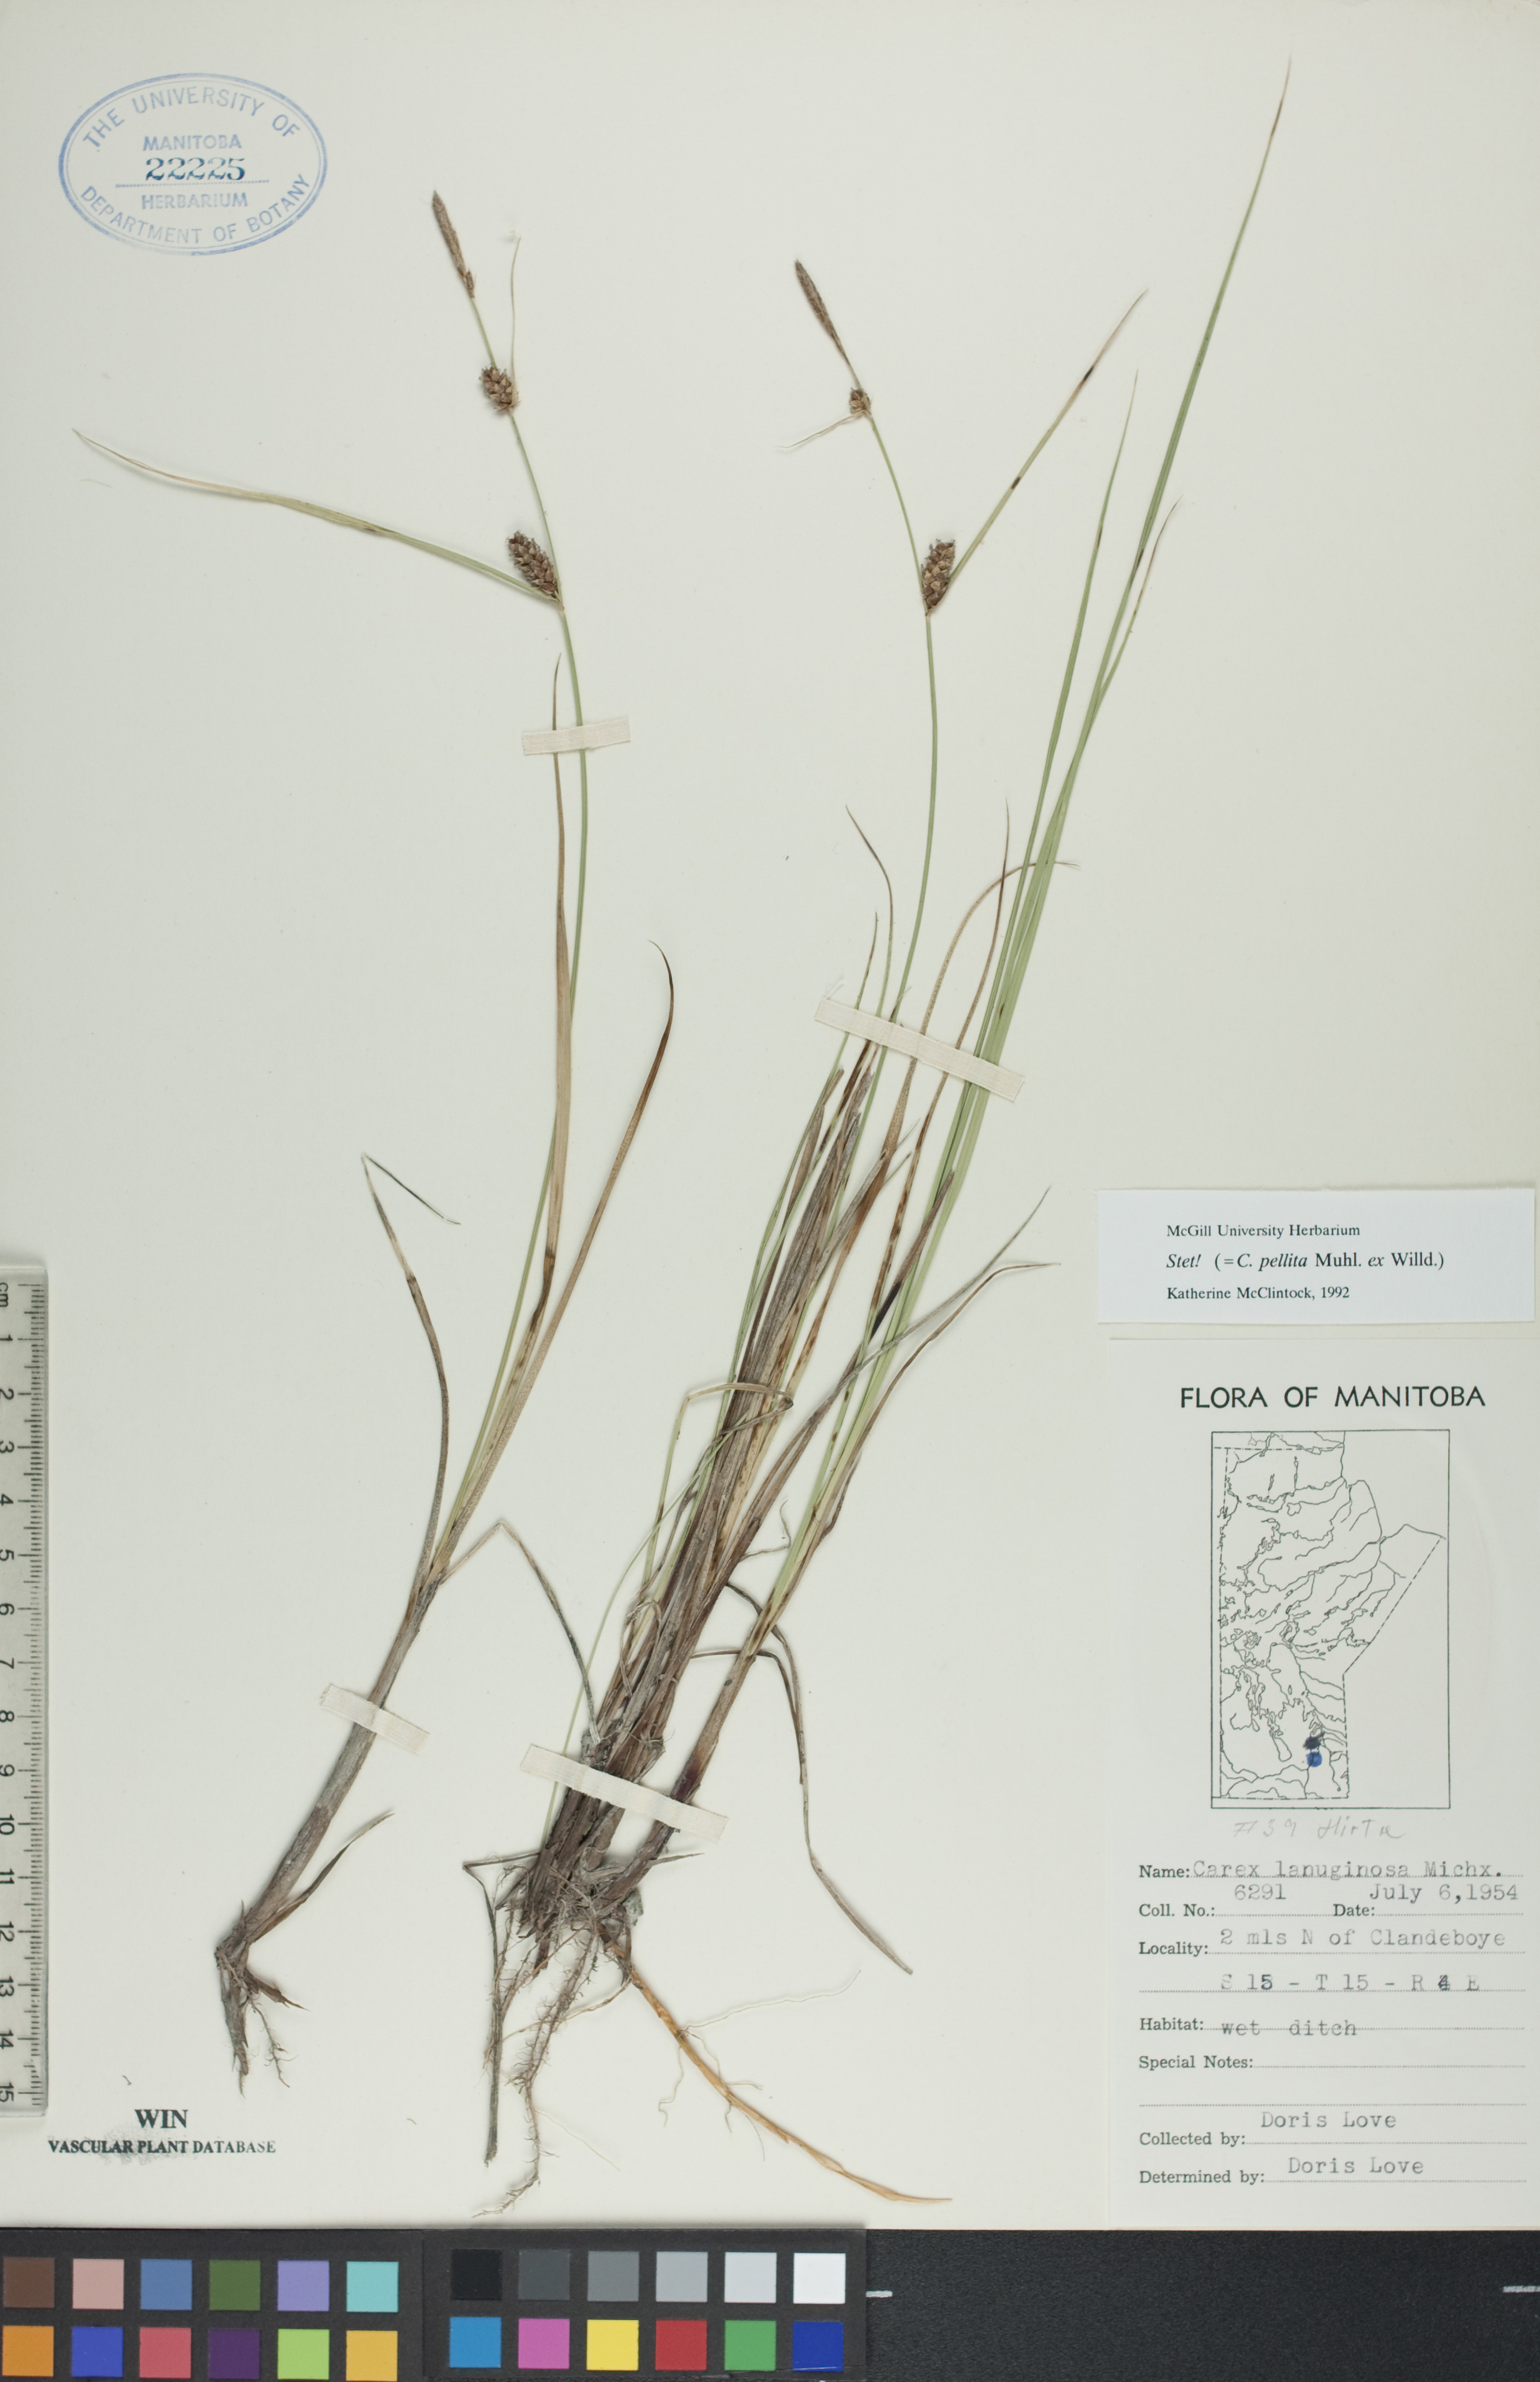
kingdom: Plantae
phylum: Tracheophyta
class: Liliopsida
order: Poales
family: Cyperaceae
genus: Carex
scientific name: Carex lasiocarpa
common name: Slender sedge
